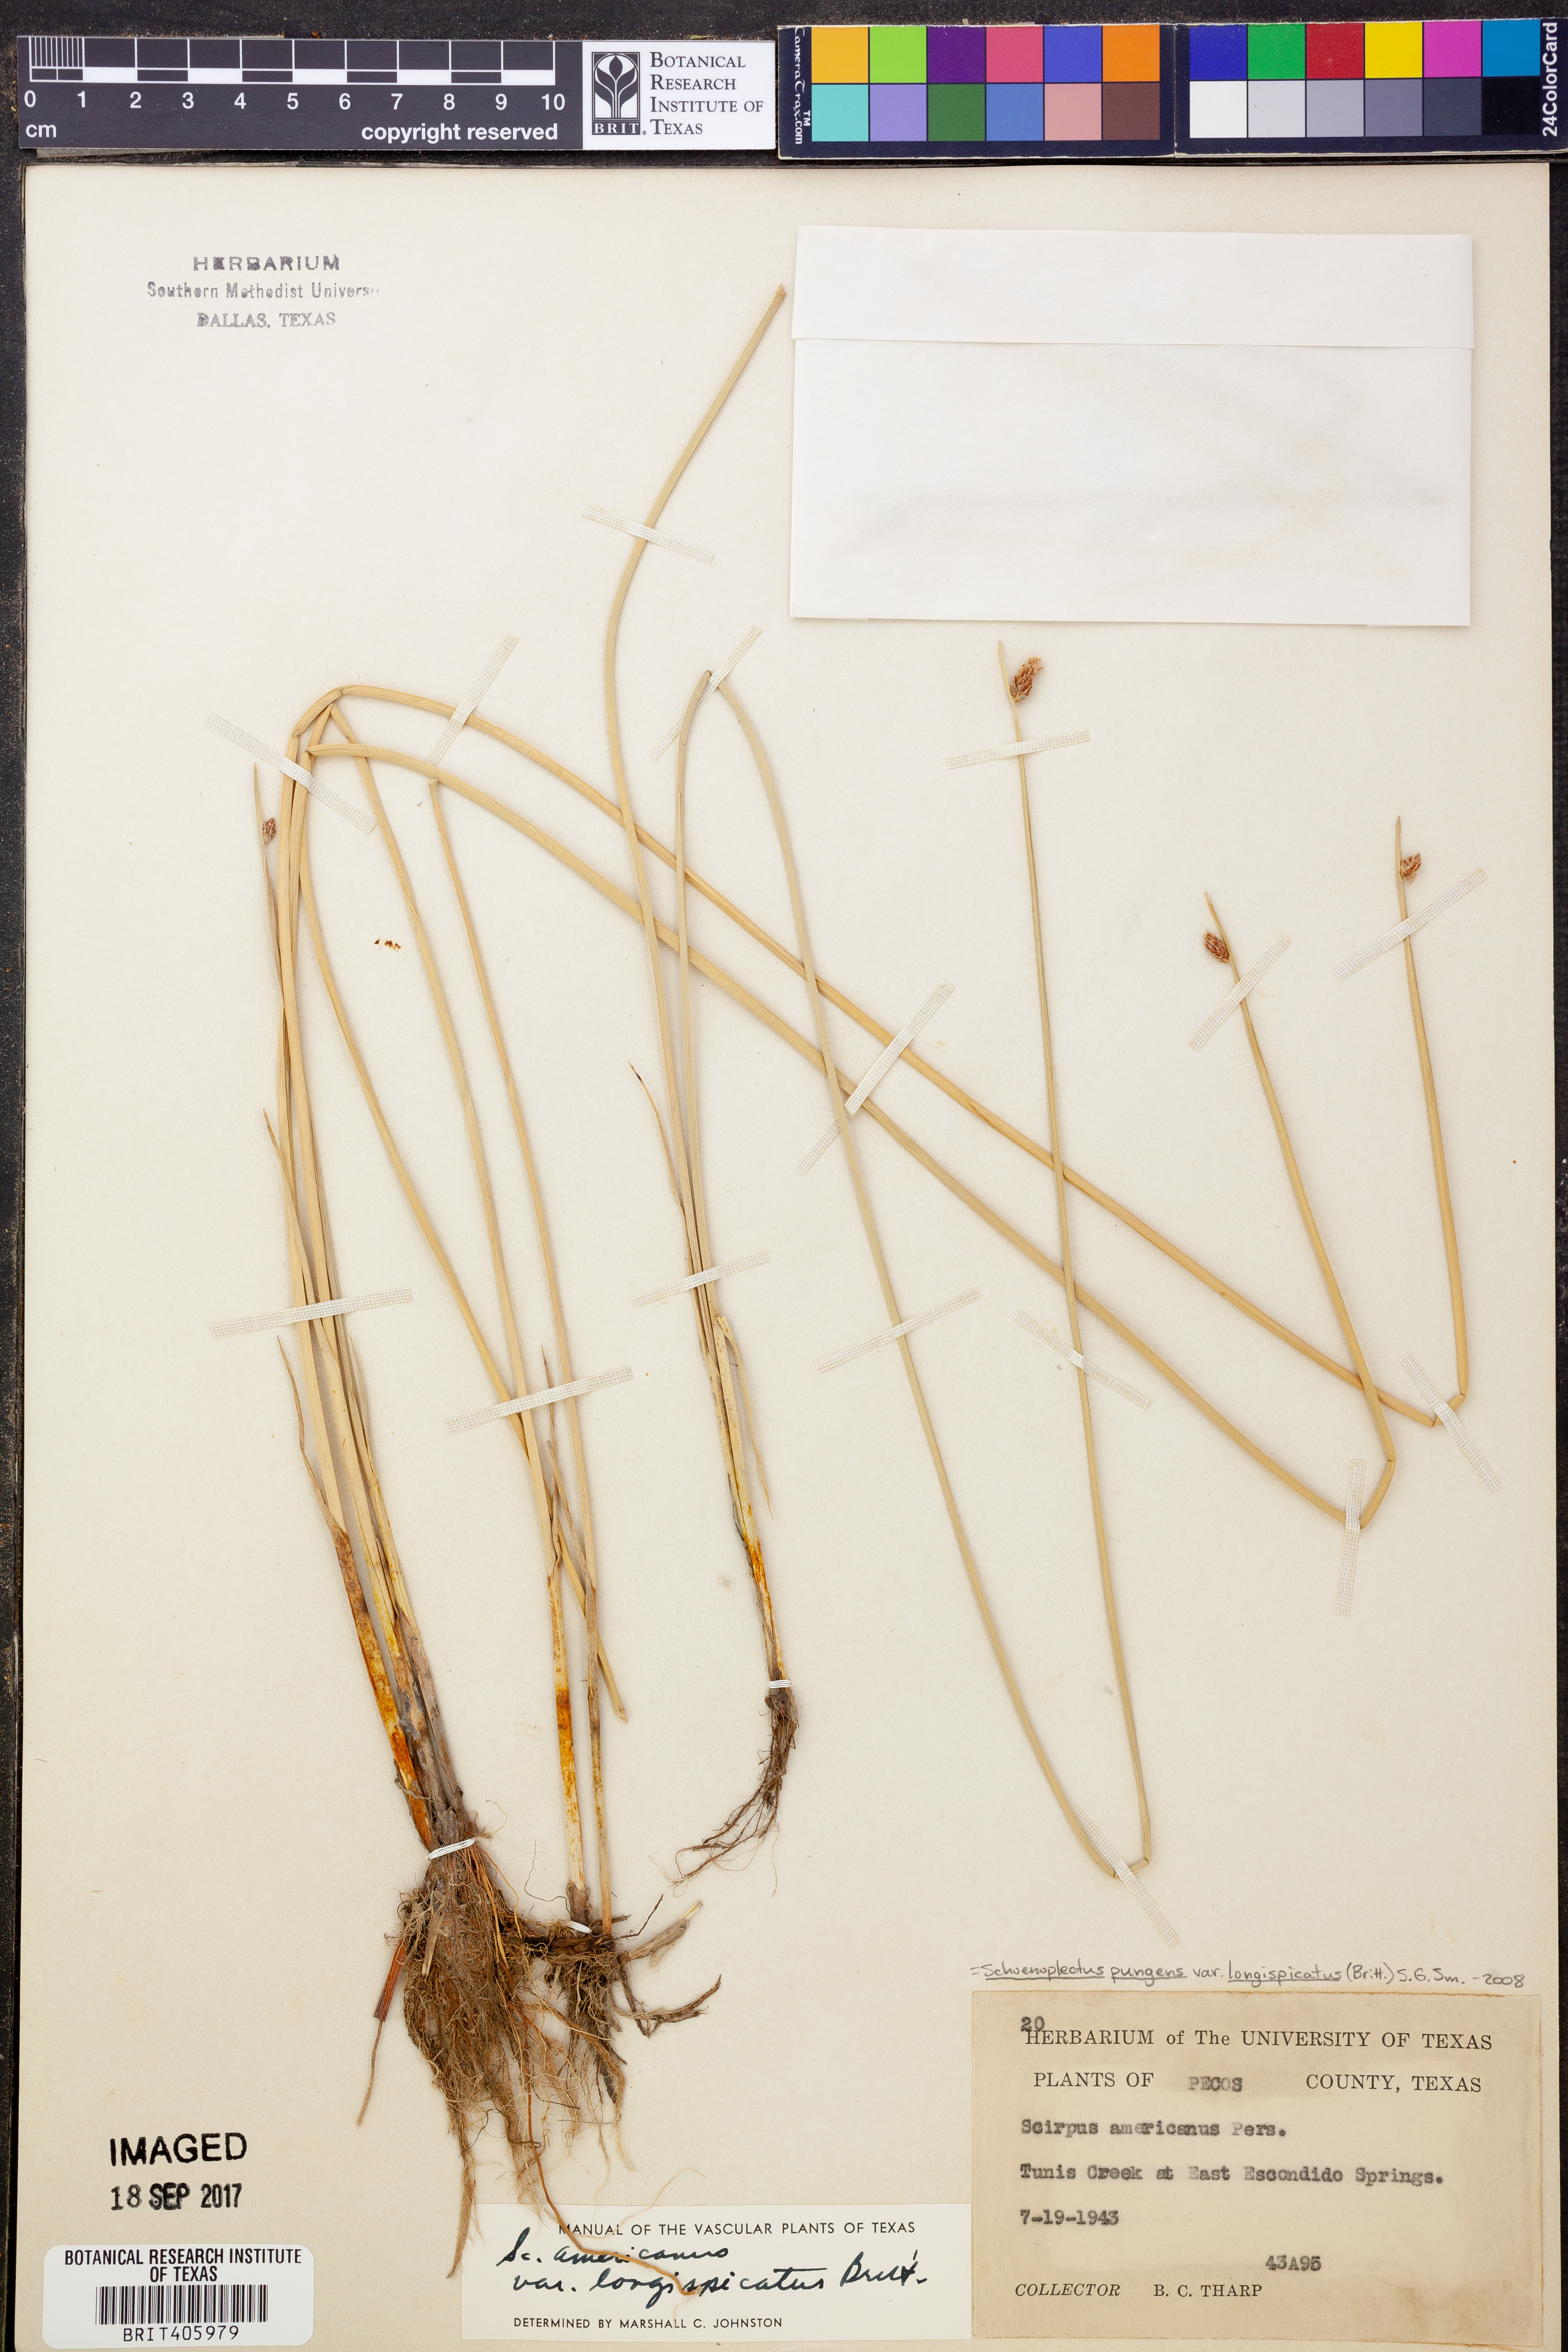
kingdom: Plantae
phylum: Tracheophyta
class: Liliopsida
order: Poales
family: Cyperaceae
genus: Schoenoplectus
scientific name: Schoenoplectus pungens
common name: Sharp club-rush
